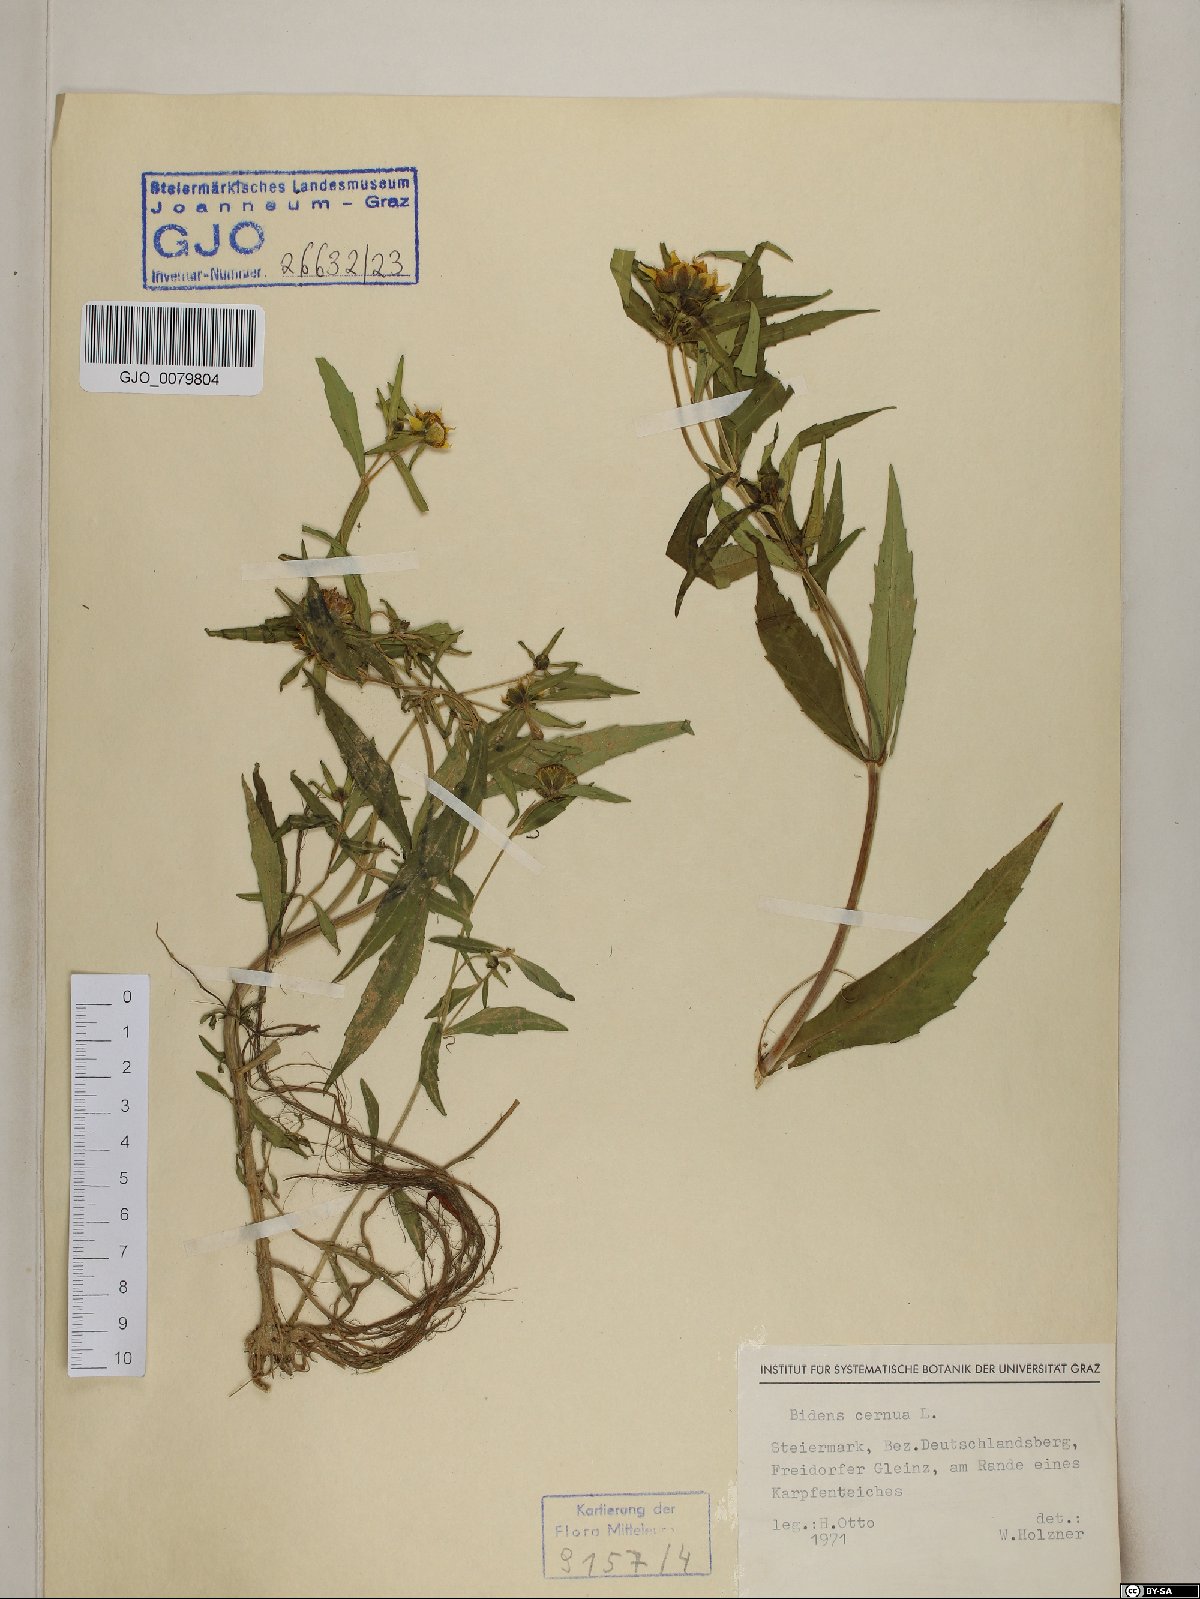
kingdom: Plantae
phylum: Tracheophyta
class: Magnoliopsida
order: Asterales
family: Asteraceae
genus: Bidens
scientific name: Bidens cernua
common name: Nodding bur-marigold
